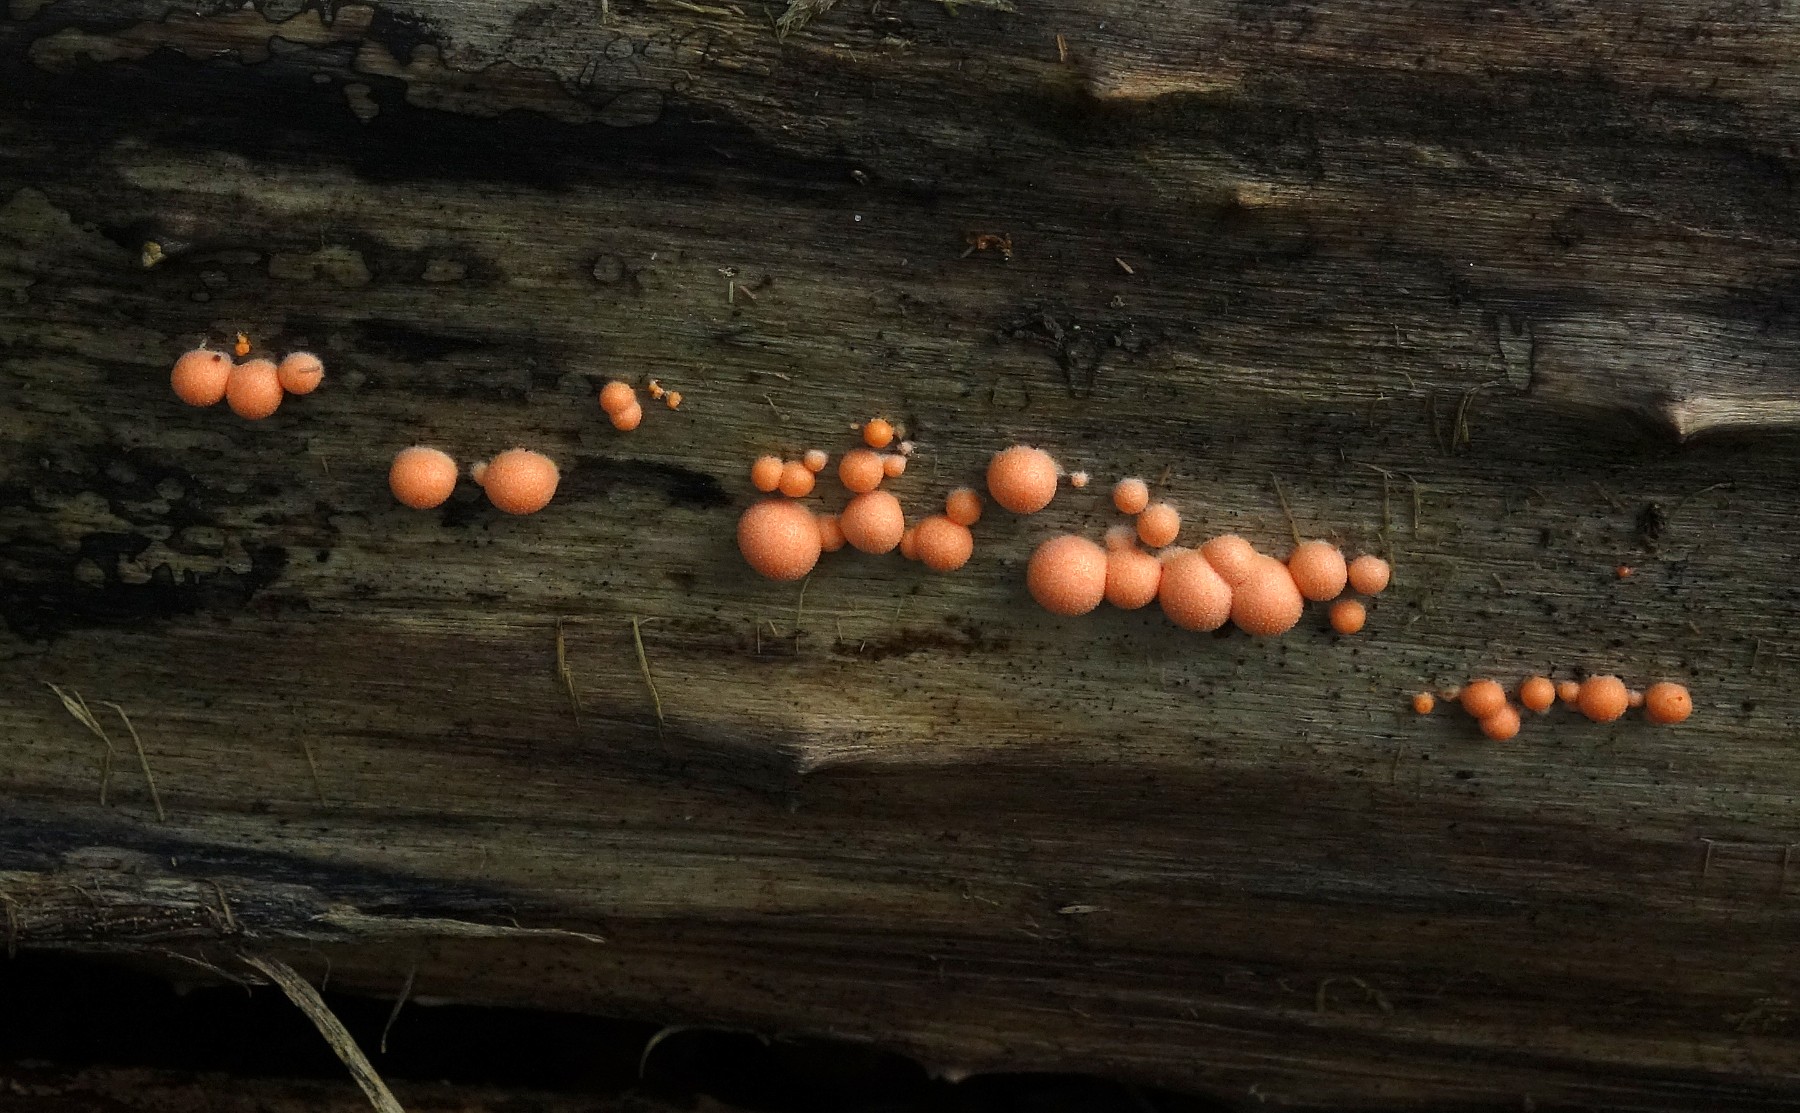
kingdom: Protozoa
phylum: Mycetozoa
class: Myxomycetes
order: Cribrariales
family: Tubiferaceae
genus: Lycogala
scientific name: Lycogala epidendrum
